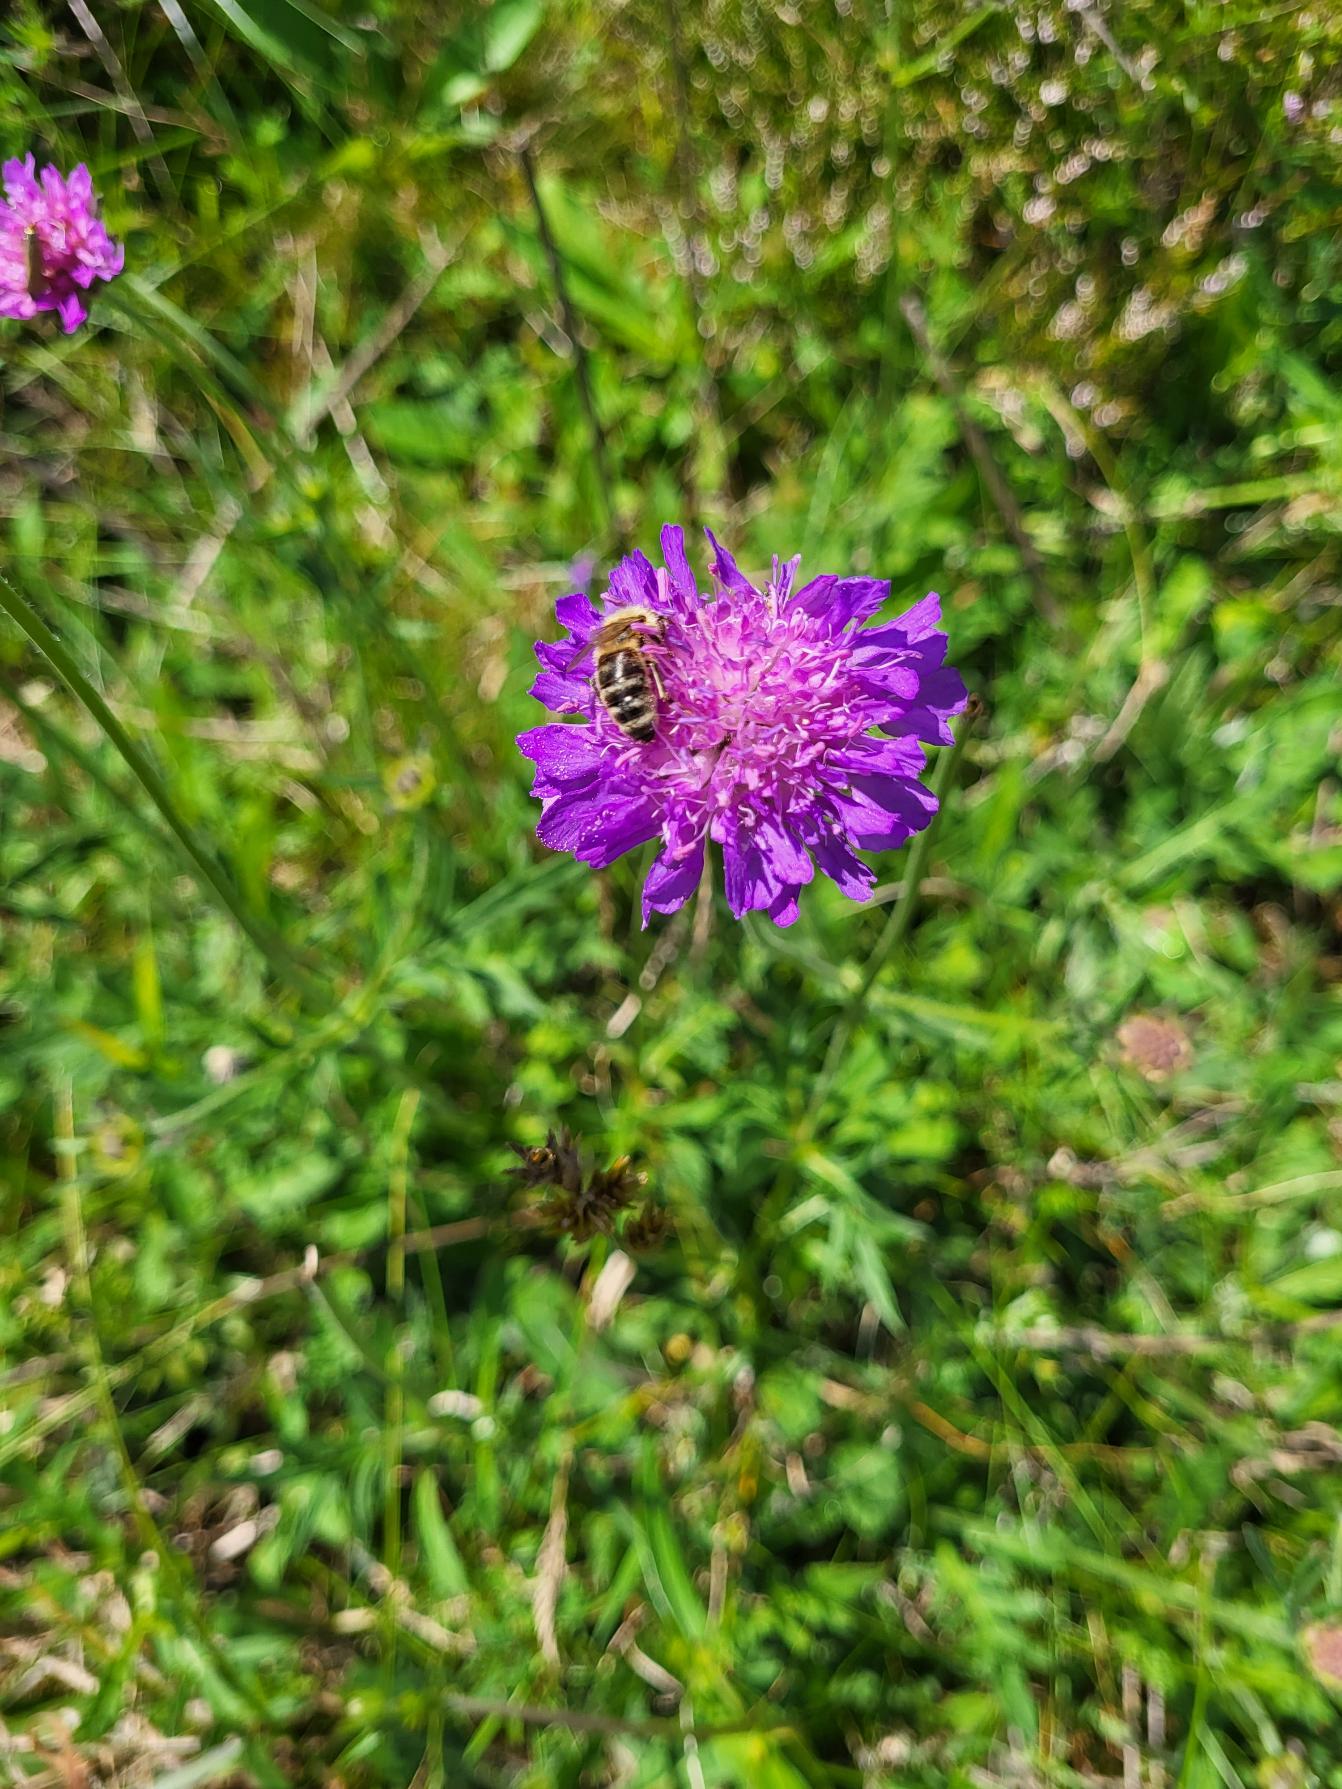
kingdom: Plantae
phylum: Tracheophyta
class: Magnoliopsida
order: Dipsacales
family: Caprifoliaceae
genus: Knautia
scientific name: Knautia arvensis
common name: Blåhat
